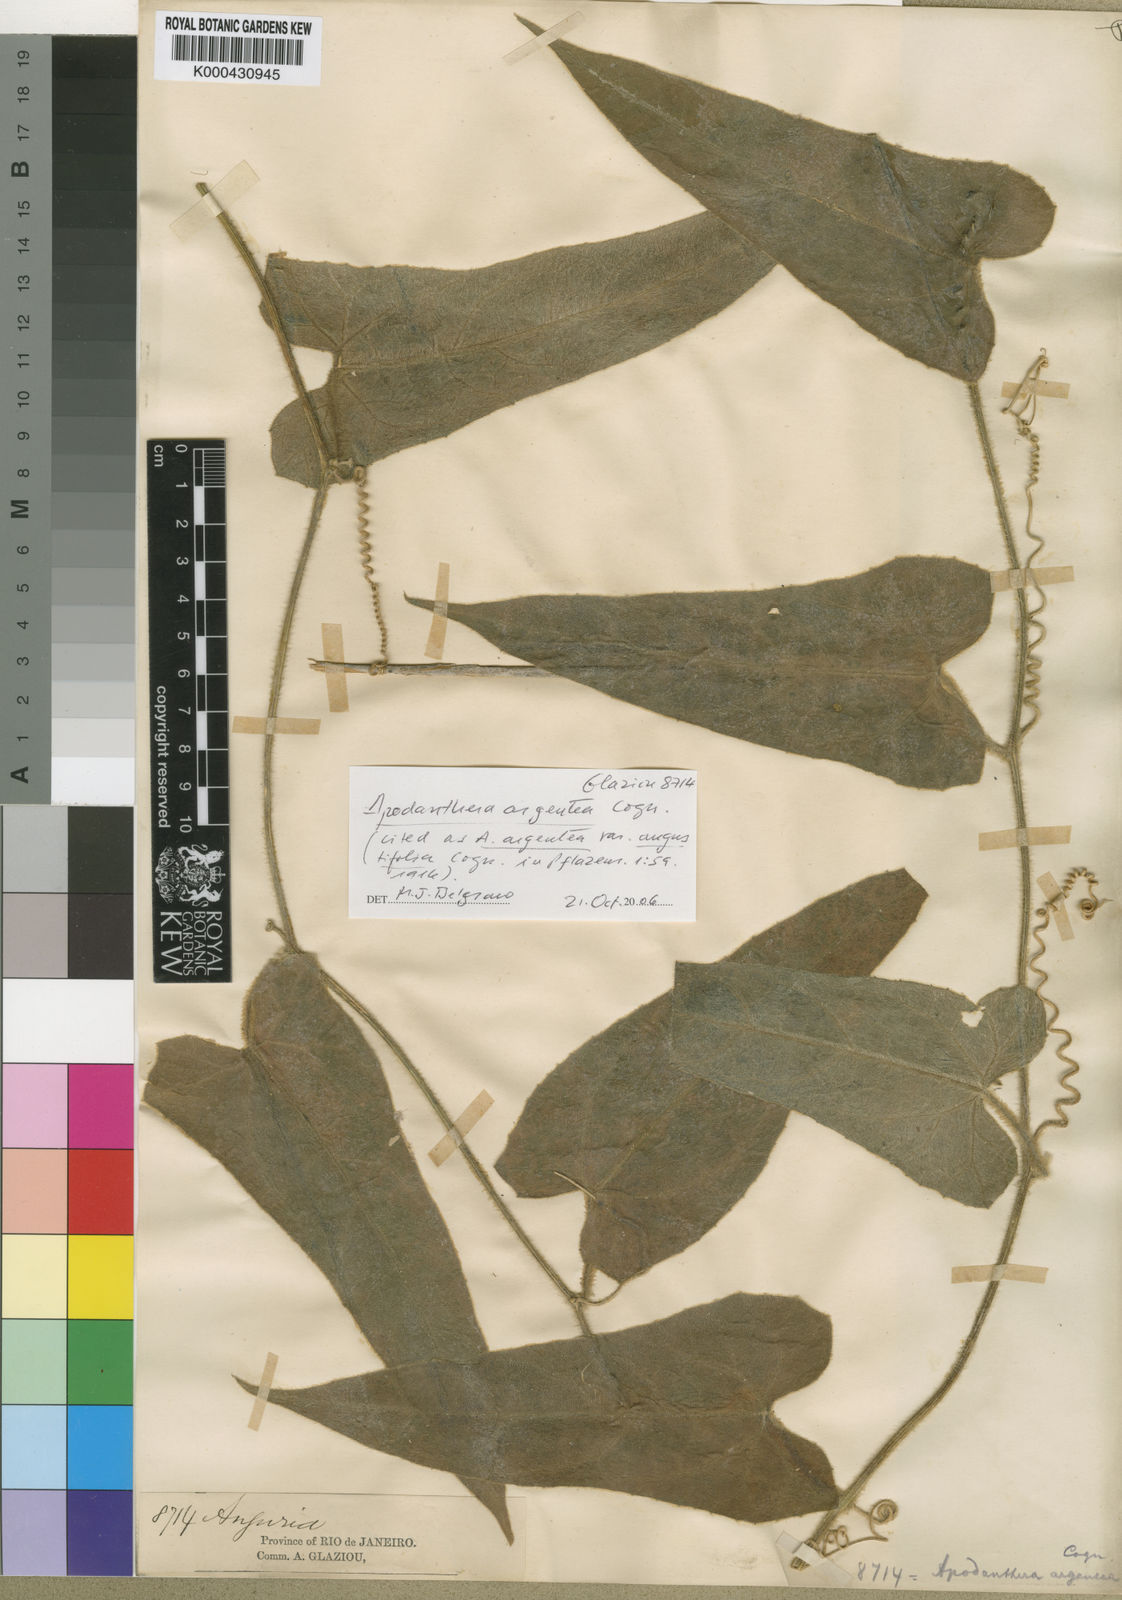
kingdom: Plantae
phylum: Tracheophyta
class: Magnoliopsida
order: Cucurbitales
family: Cucurbitaceae
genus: Apodanthera
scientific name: Apodanthera argentea
